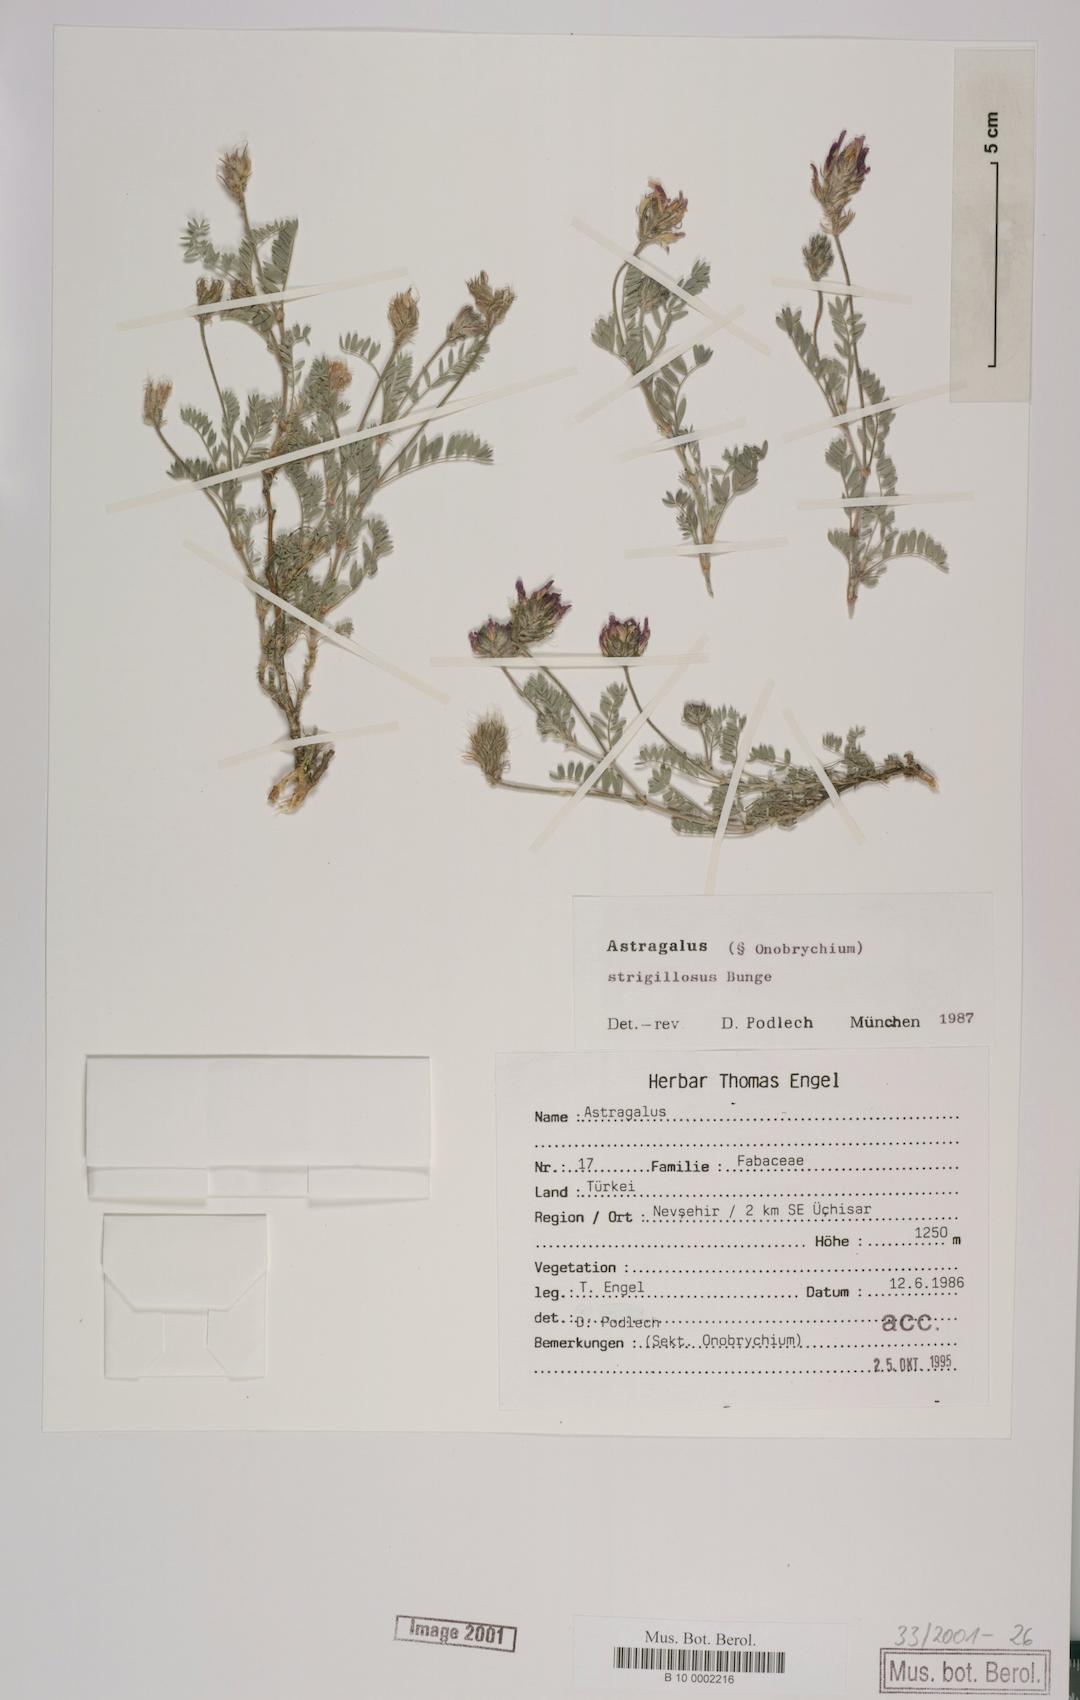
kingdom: Plantae
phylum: Tracheophyta
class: Magnoliopsida
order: Fabales
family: Fabaceae
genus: Astragalus
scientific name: Astragalus strigillosus
